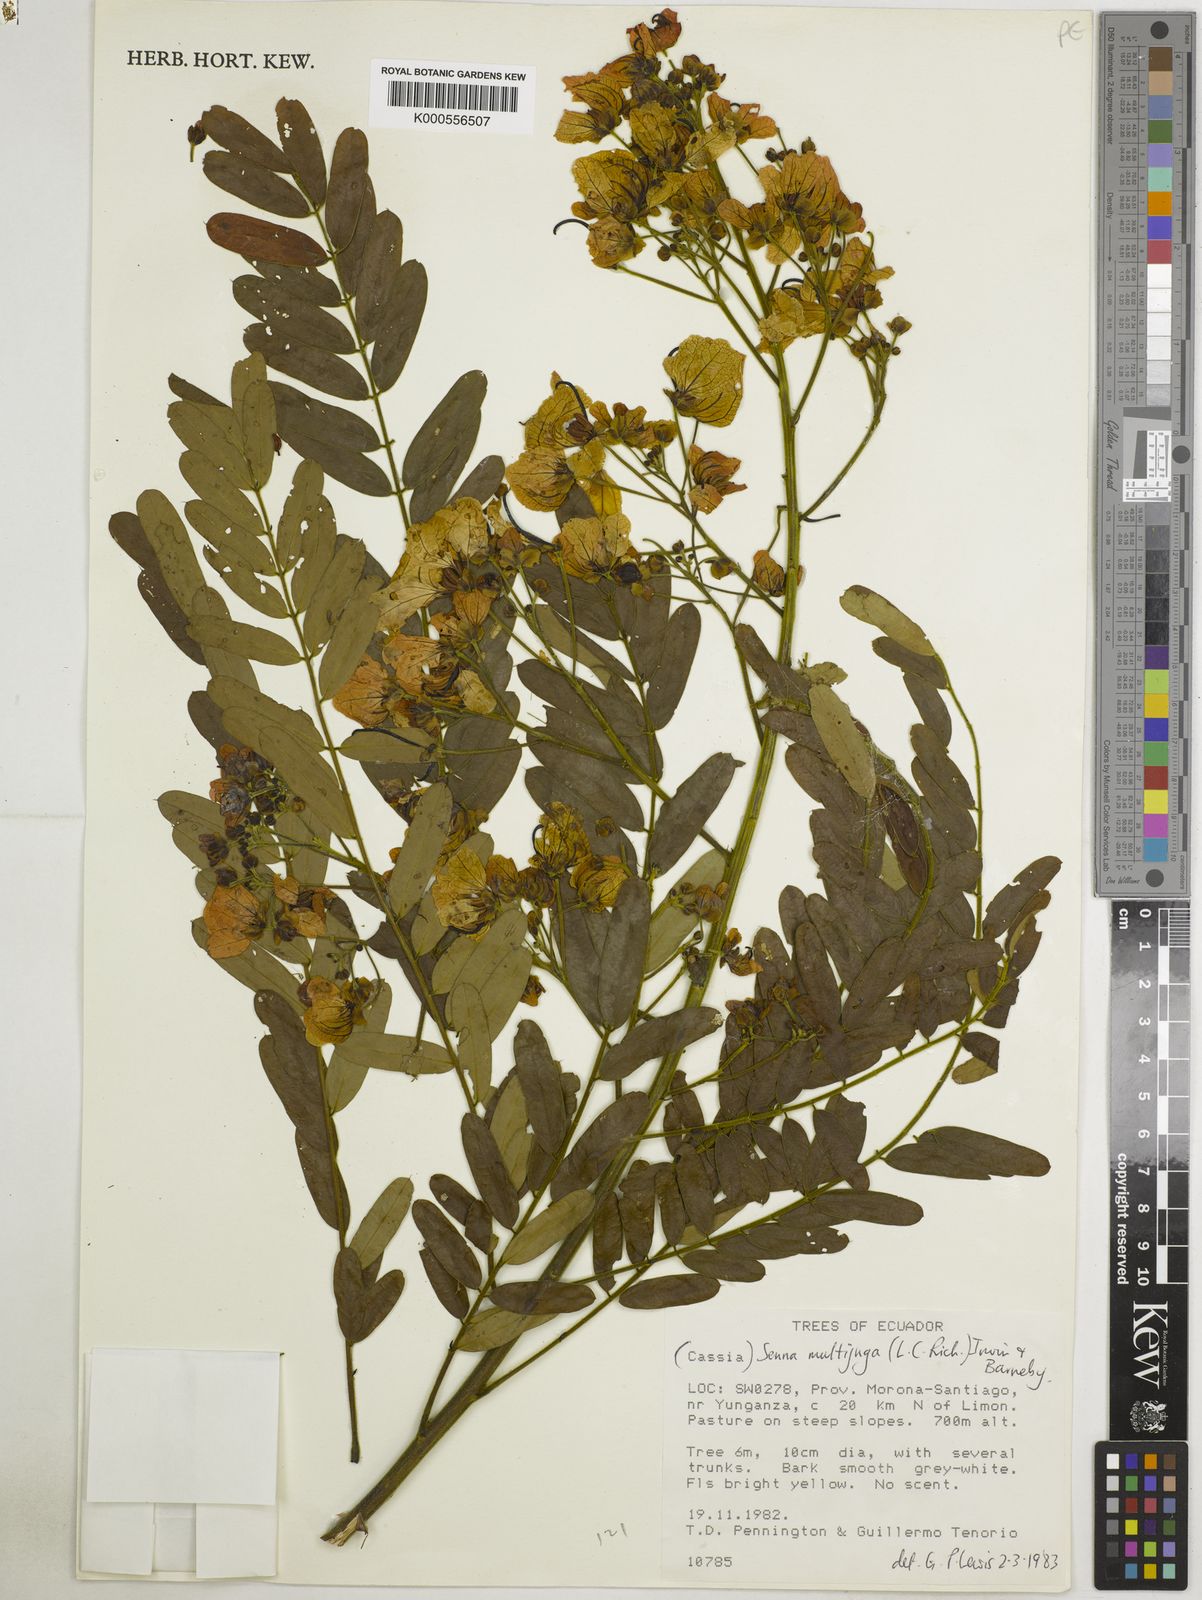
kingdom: Plantae
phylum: Tracheophyta
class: Magnoliopsida
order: Fabales
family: Fabaceae
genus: Senna
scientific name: Senna multijuga
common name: False sicklepod
